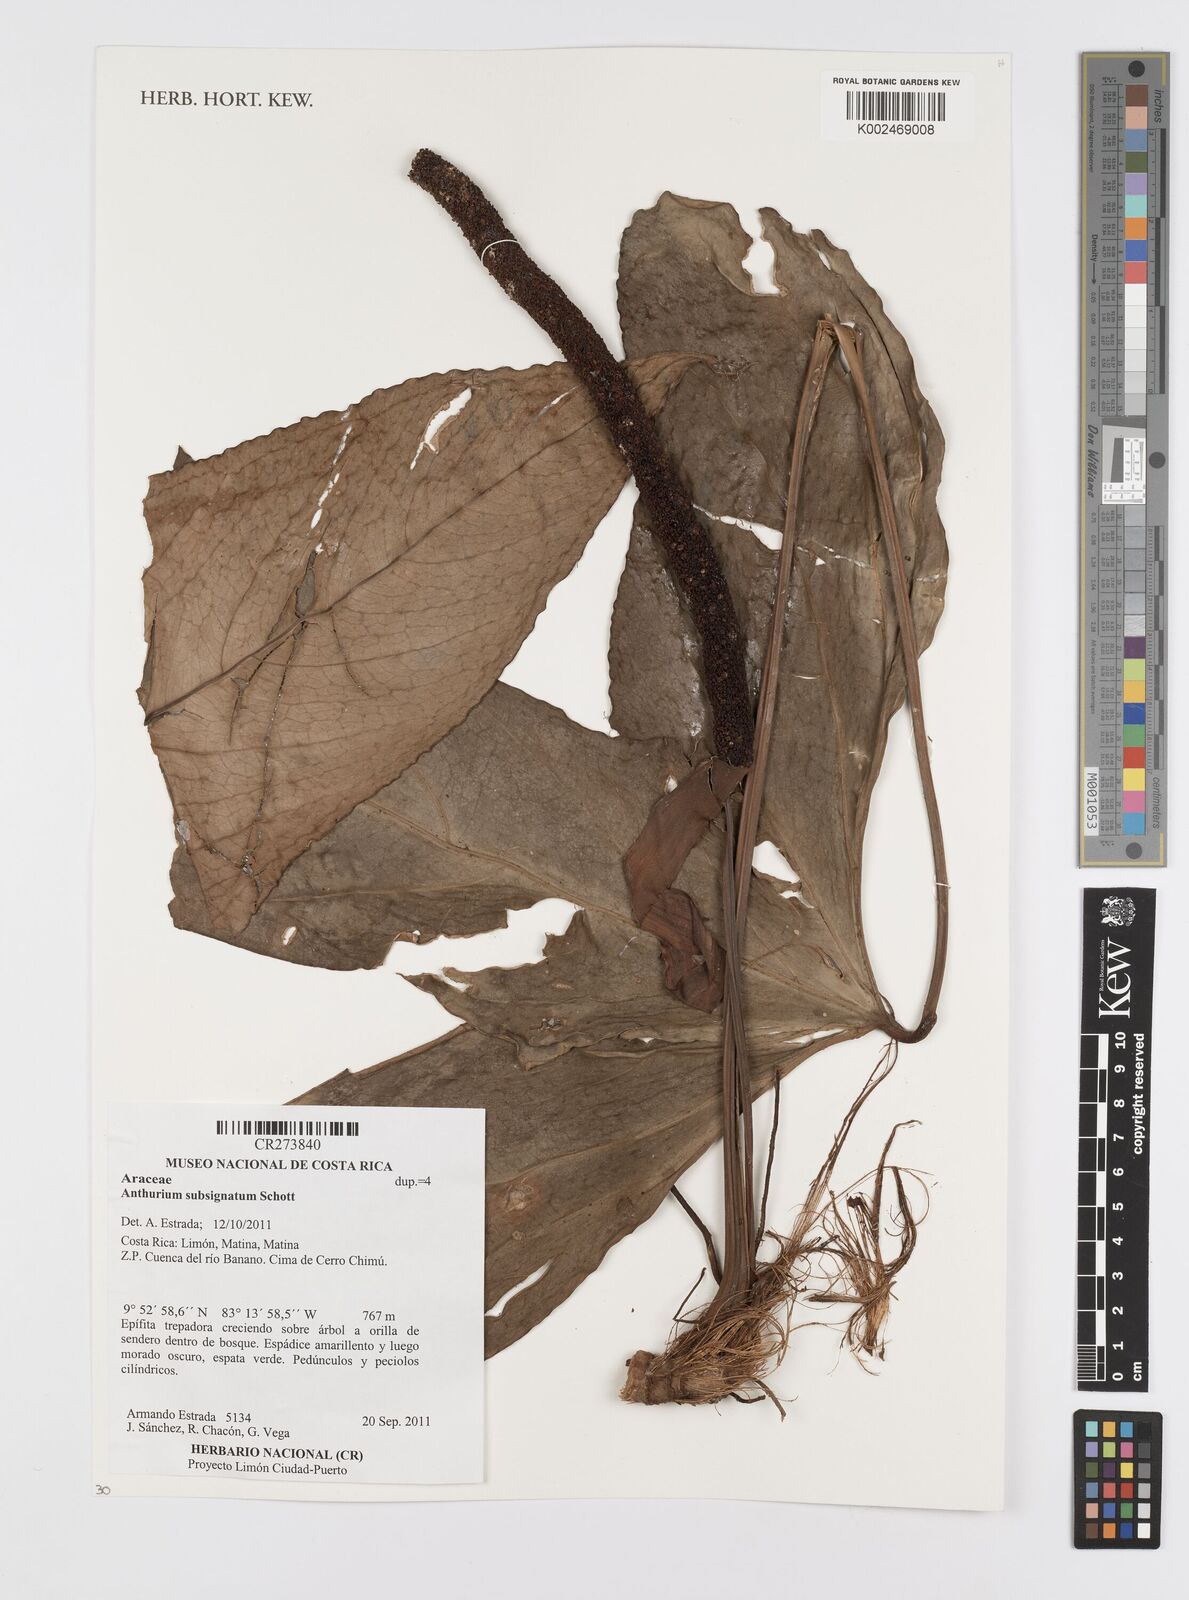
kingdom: Plantae
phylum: Tracheophyta
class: Liliopsida
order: Alismatales
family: Araceae
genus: Anthurium
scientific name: Anthurium subsignatum
